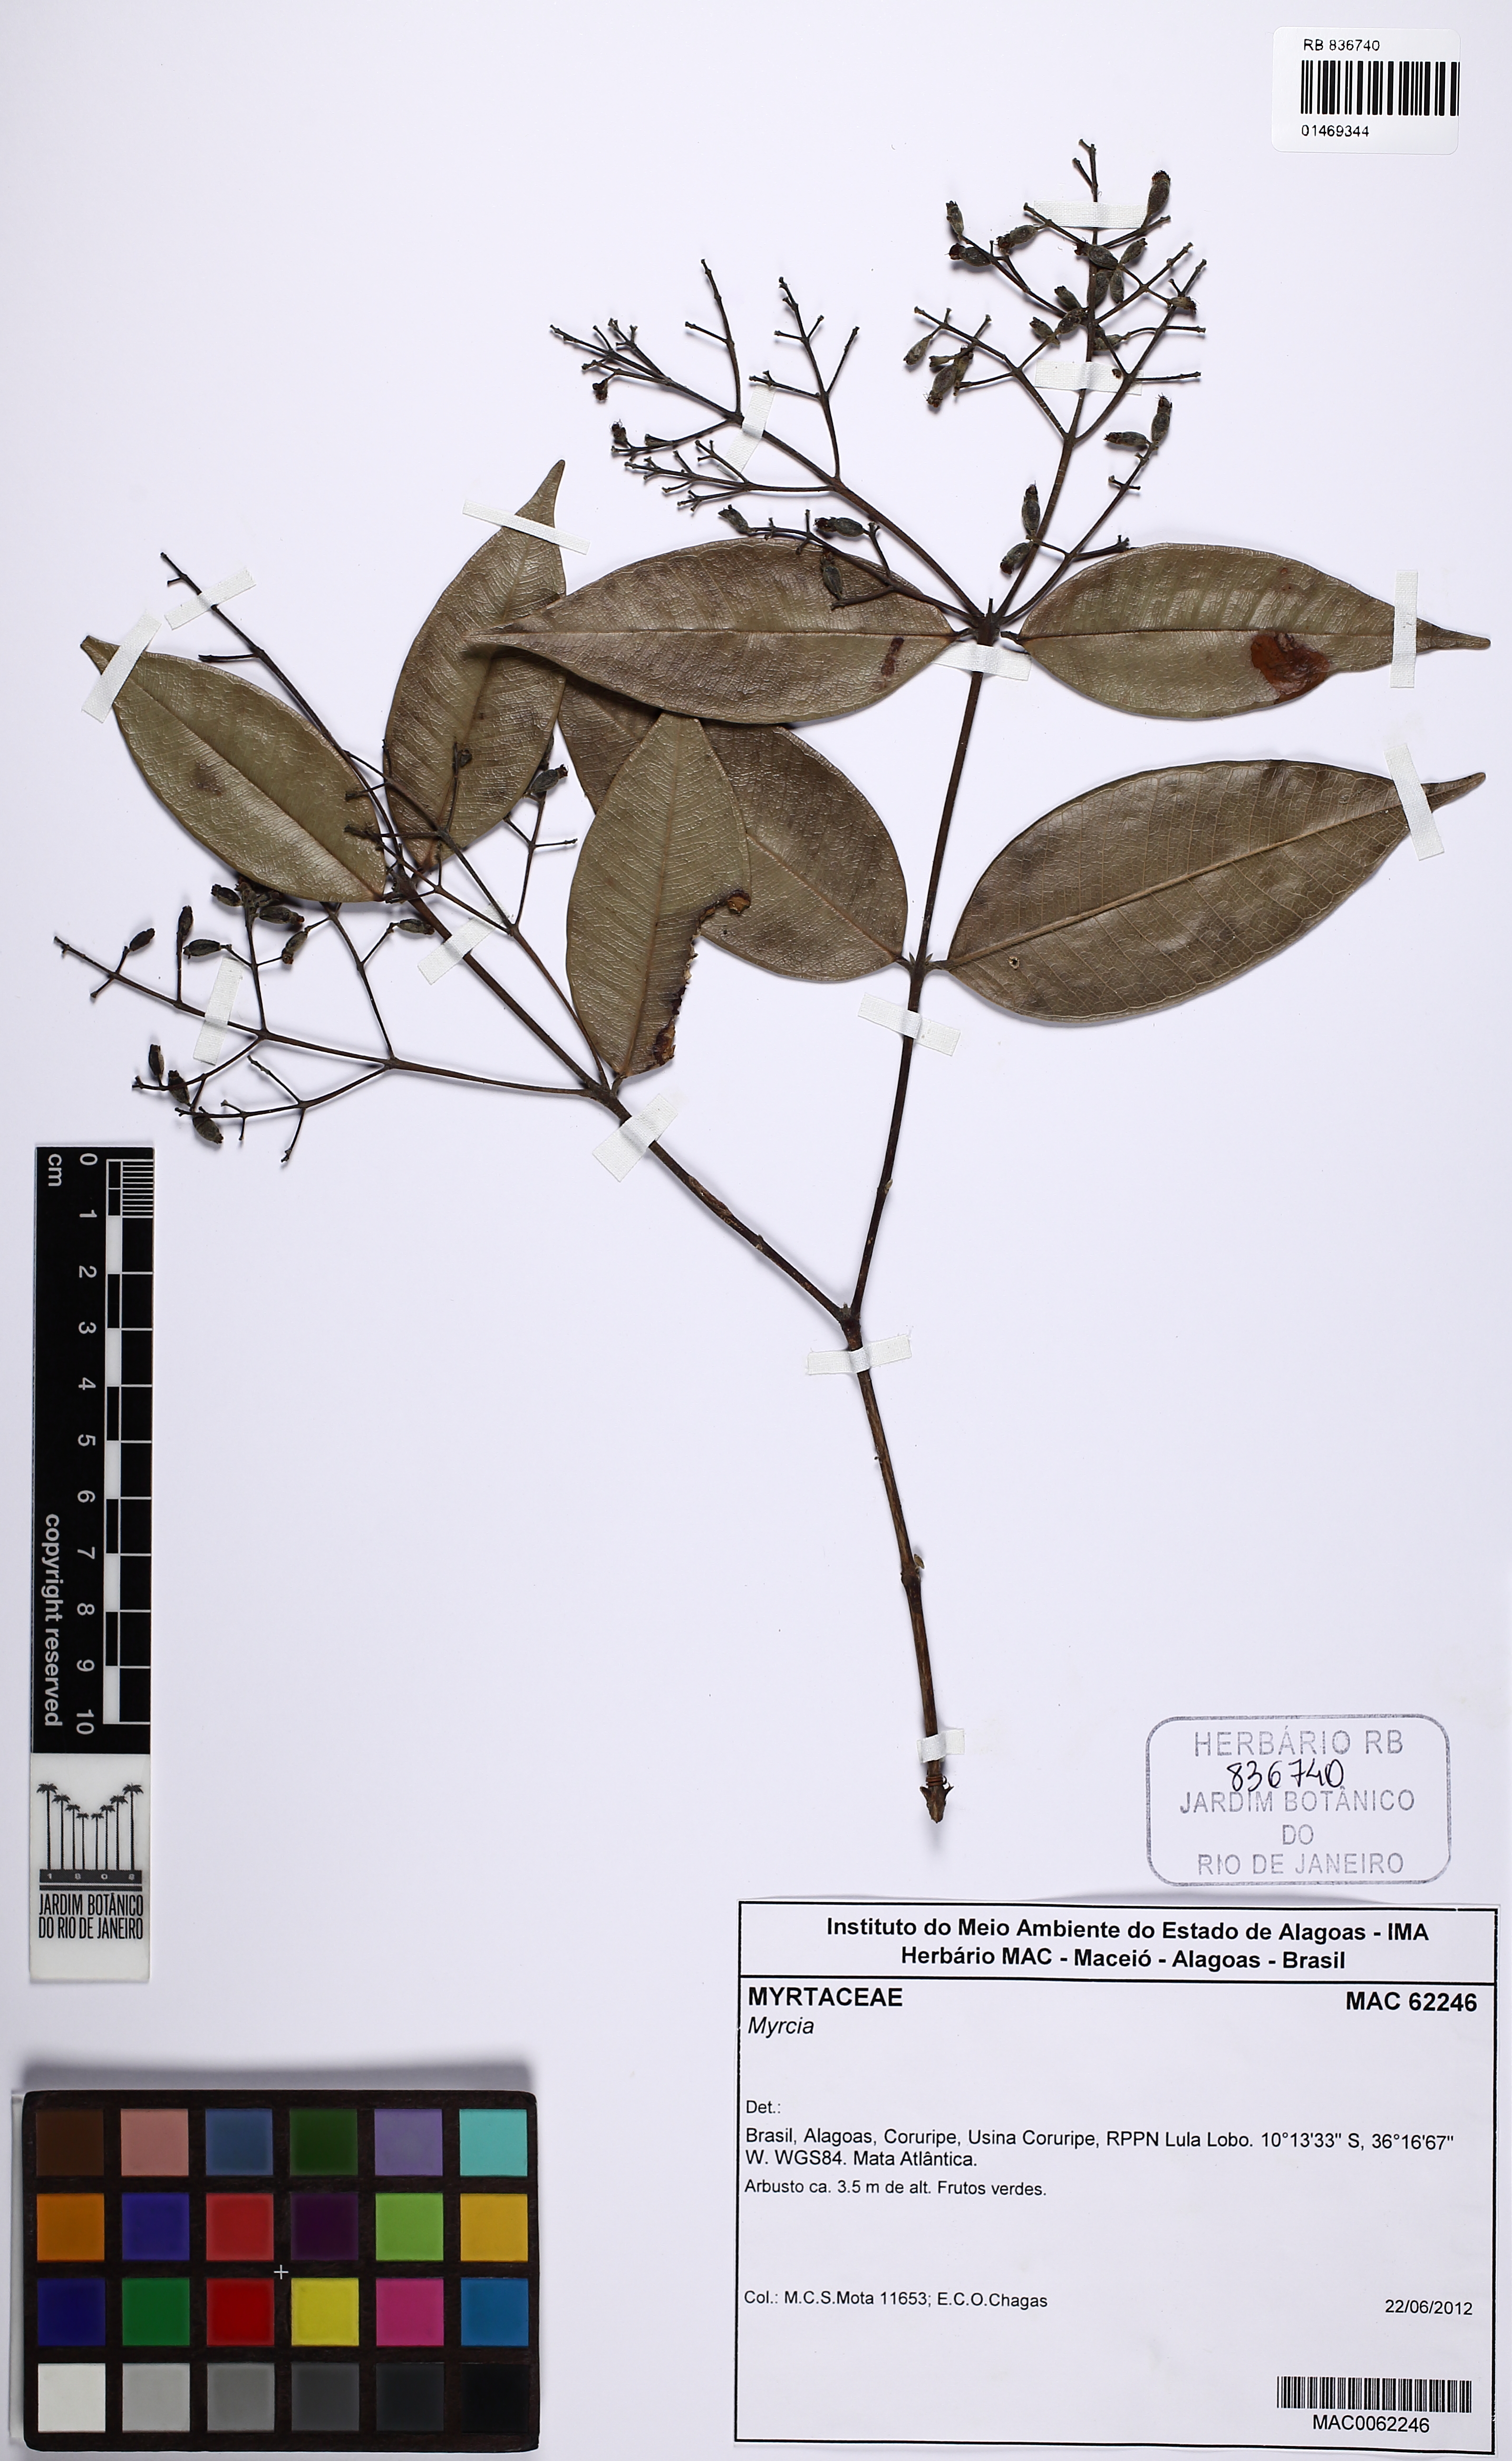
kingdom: Plantae
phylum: Tracheophyta
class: Magnoliopsida
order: Myrtales
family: Myrtaceae
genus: Myrcia
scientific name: Myrcia splendens
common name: Surinam cherry
